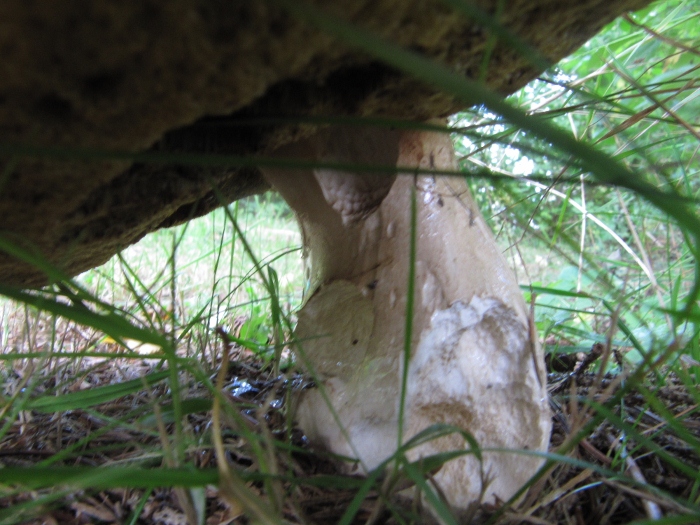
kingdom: Fungi
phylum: Basidiomycota
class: Agaricomycetes
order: Boletales
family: Boletaceae
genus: Boletus
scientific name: Boletus edulis
